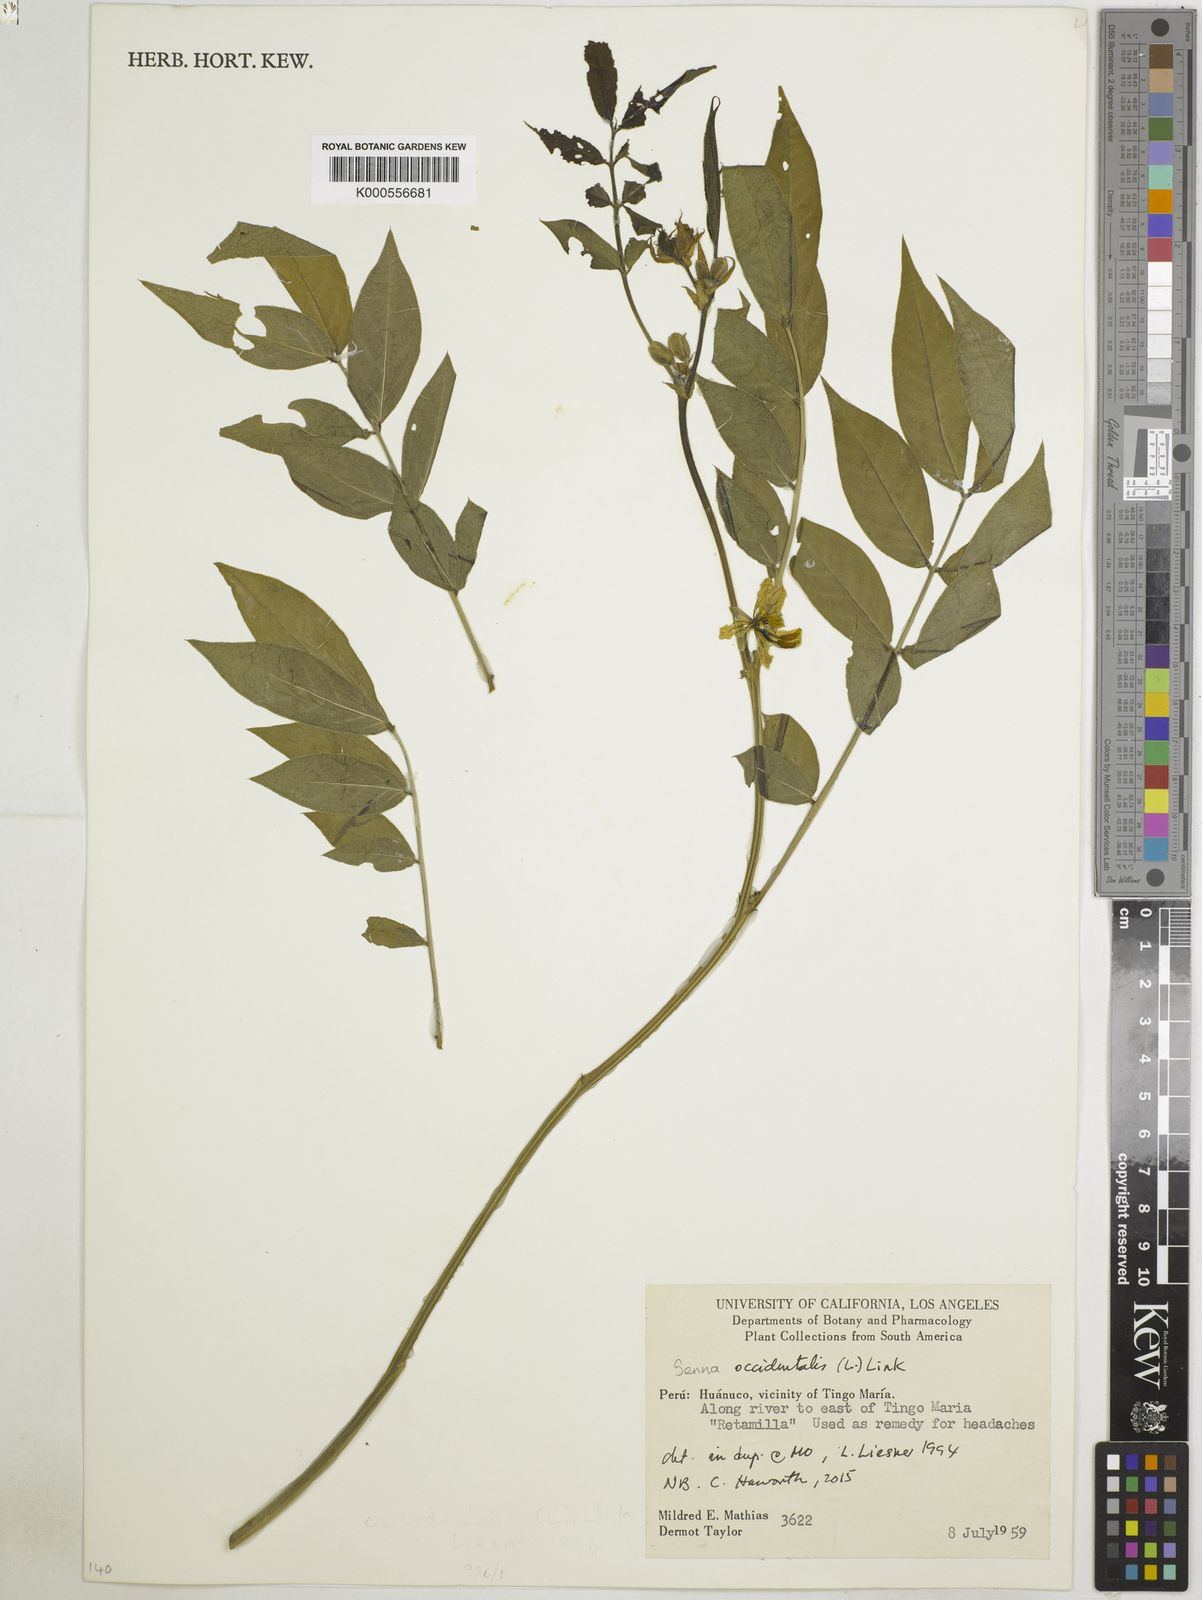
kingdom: Plantae
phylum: Tracheophyta
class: Magnoliopsida
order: Fabales
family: Fabaceae
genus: Senna
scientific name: Senna occidentalis
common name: Septicweed
